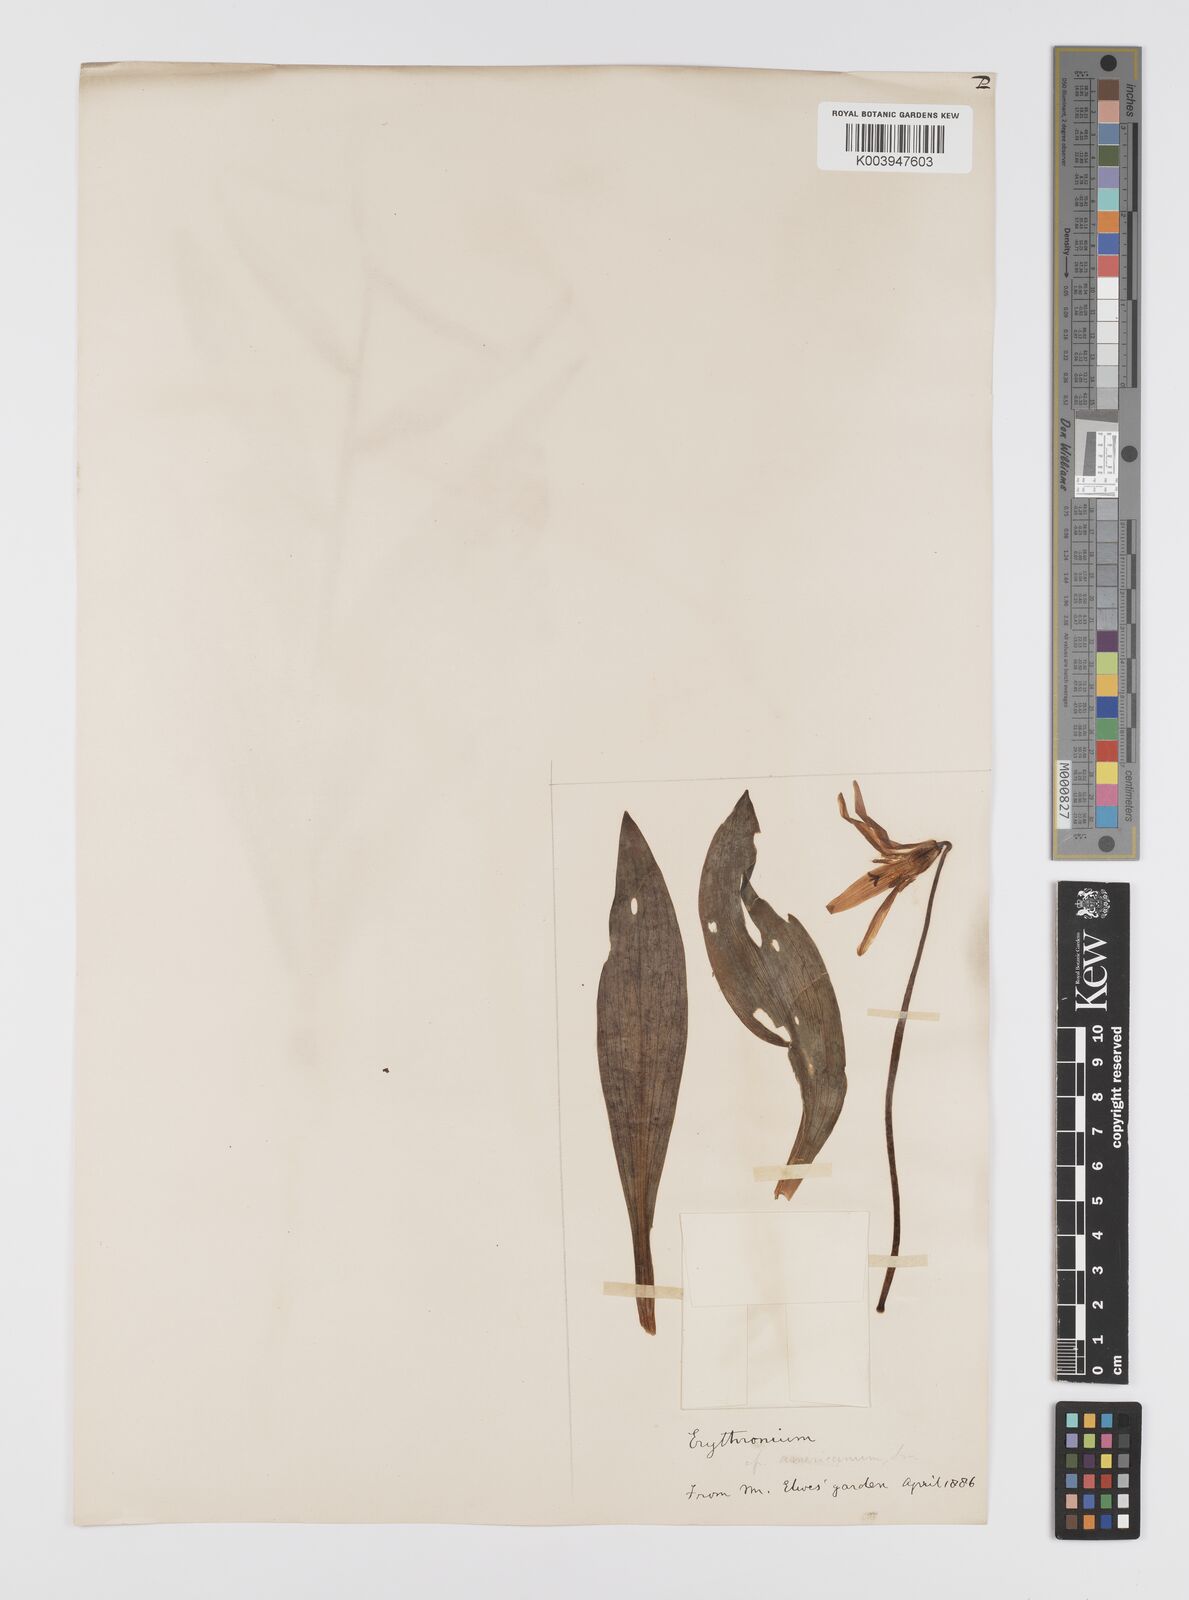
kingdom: Plantae
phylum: Tracheophyta
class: Liliopsida
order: Liliales
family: Liliaceae
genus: Erythronium
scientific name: Erythronium grandiflorum
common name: Avalanche-lily
